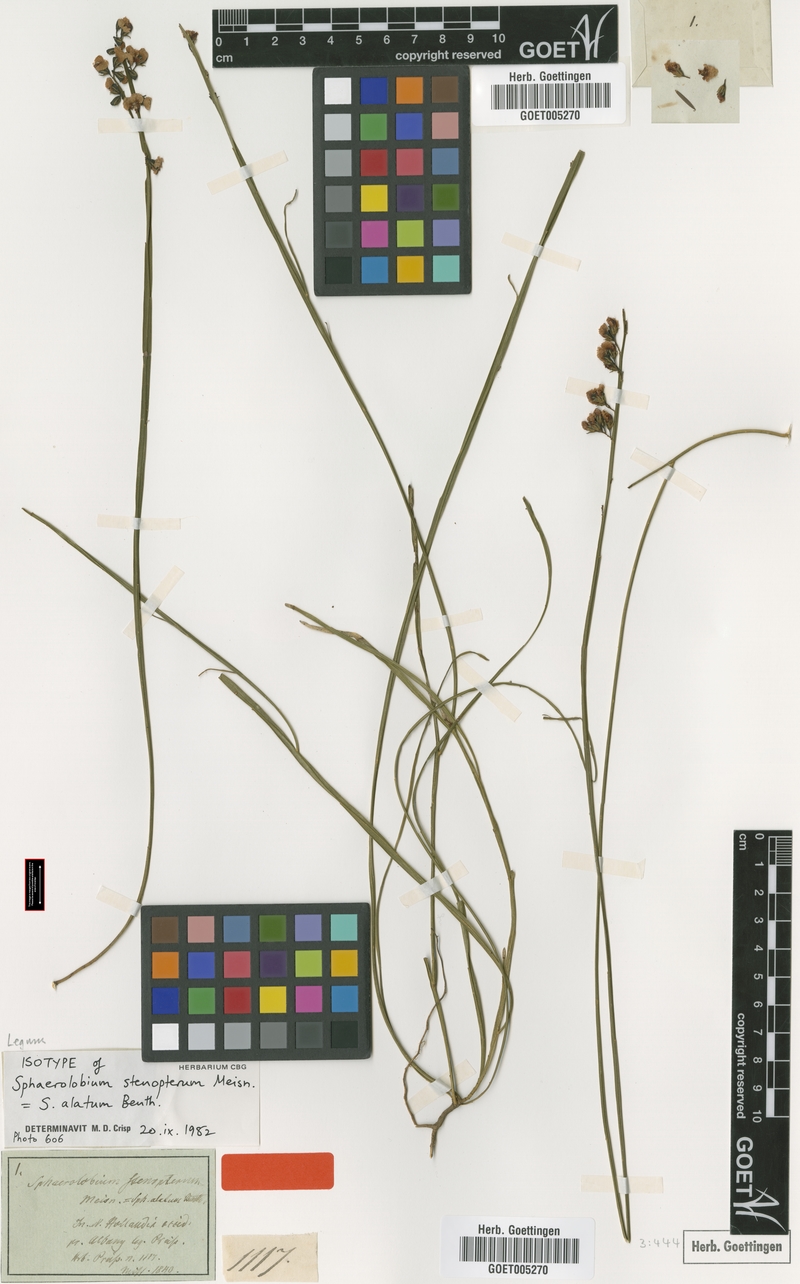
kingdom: Plantae
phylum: Tracheophyta
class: Magnoliopsida
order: Fabales
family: Fabaceae
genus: Sphaerolobium
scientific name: Sphaerolobium alatum
